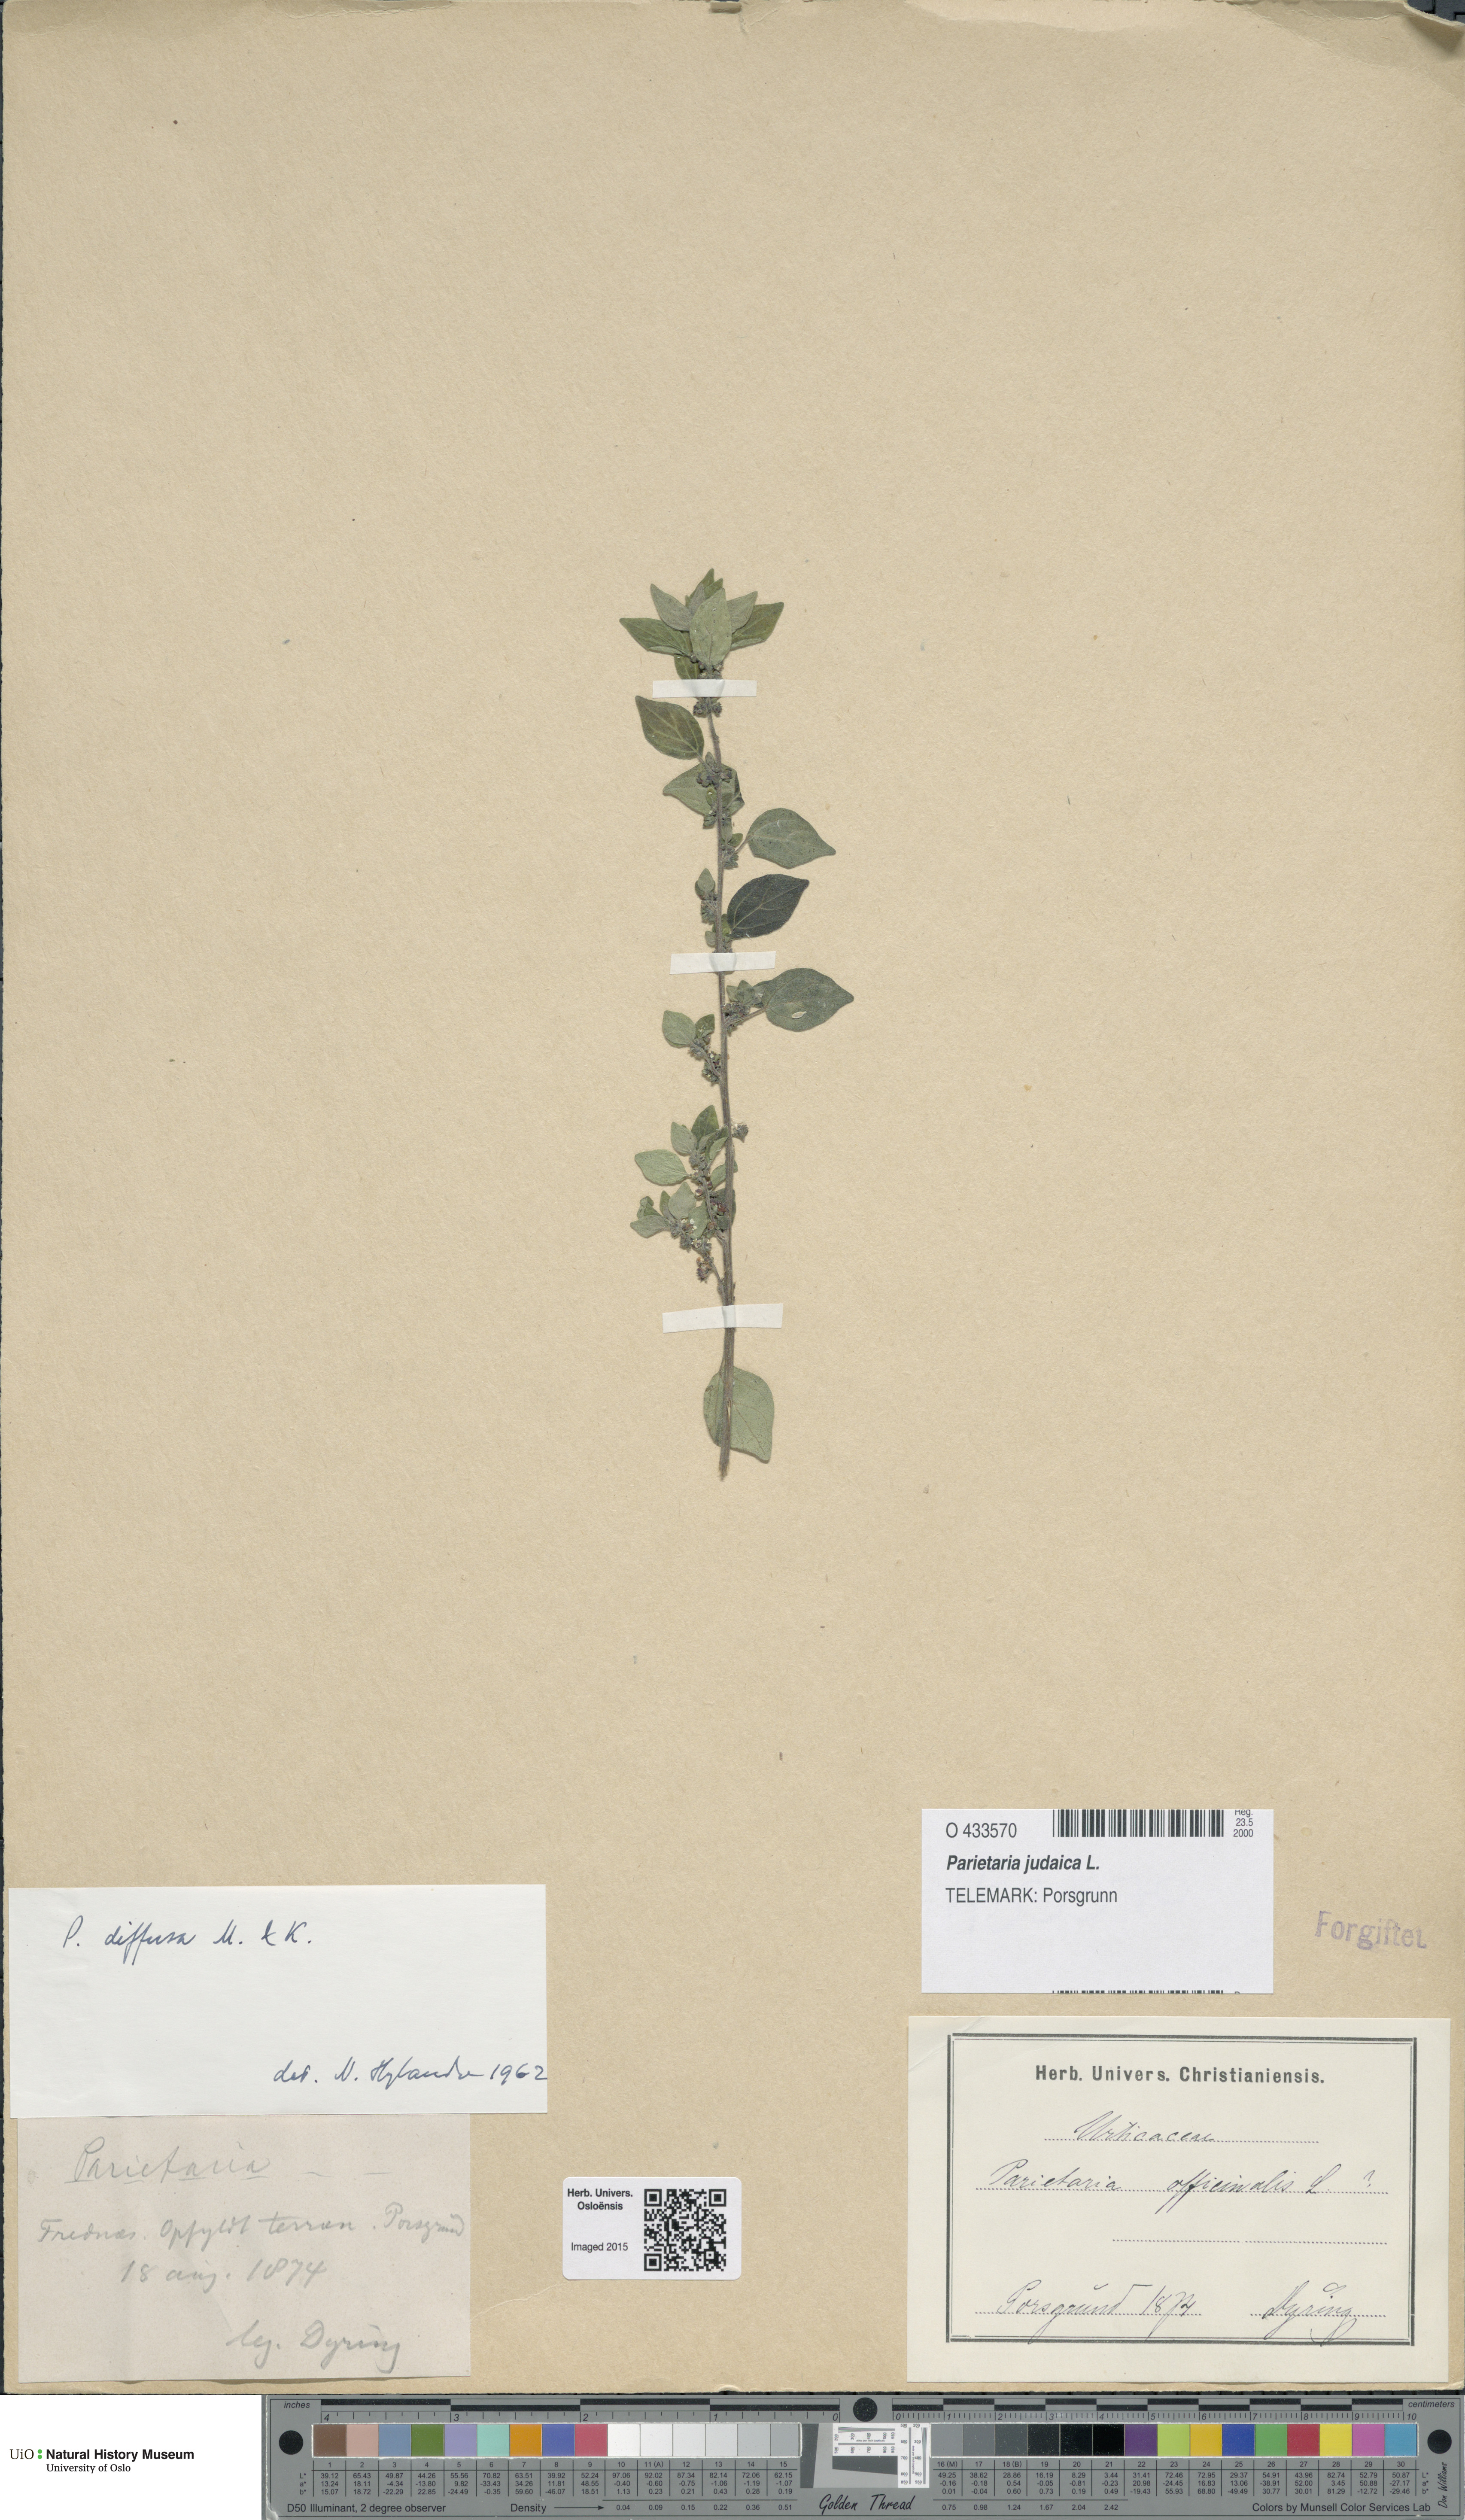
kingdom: Plantae
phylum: Tracheophyta
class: Magnoliopsida
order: Rosales
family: Urticaceae
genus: Parietaria
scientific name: Parietaria judaica
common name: Pellitory-of-the-wall
